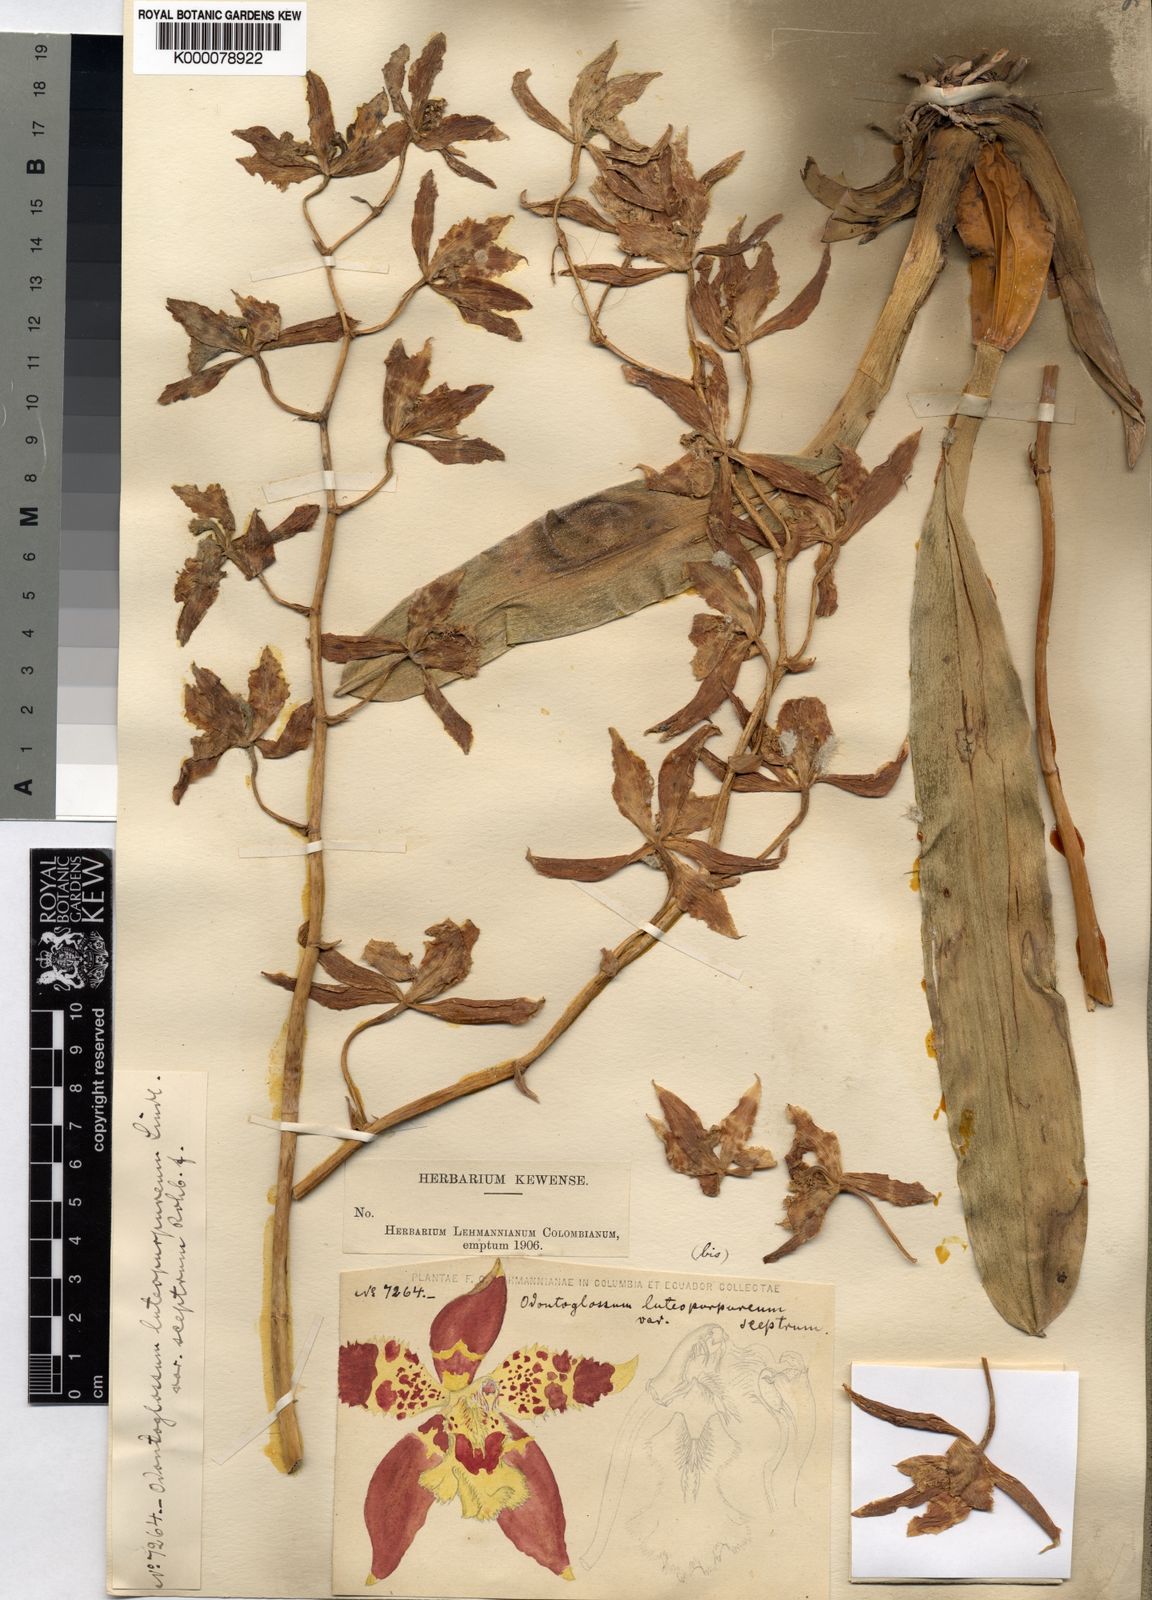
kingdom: Plantae
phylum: Tracheophyta
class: Liliopsida
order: Asparagales
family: Orchidaceae
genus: Oncidium
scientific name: Oncidium luteopurpureum
